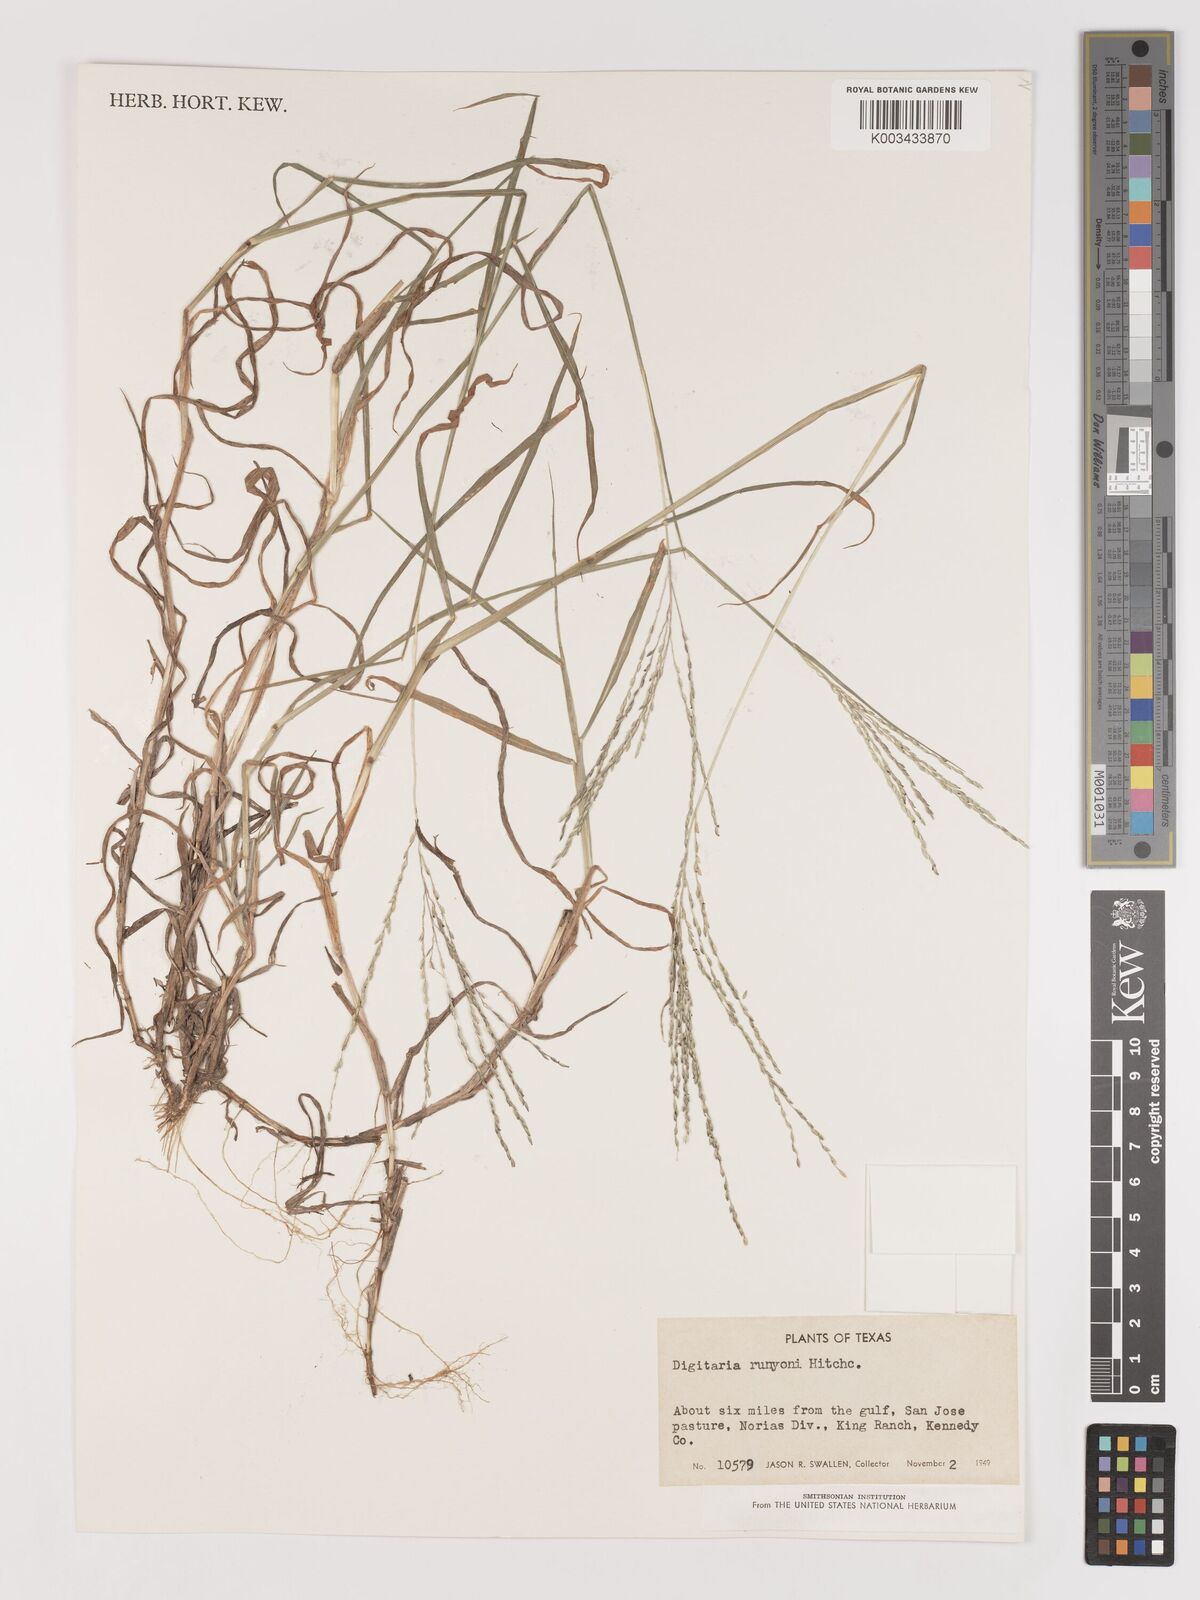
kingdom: Plantae
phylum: Tracheophyta
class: Liliopsida
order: Poales
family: Poaceae
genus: Digitaria
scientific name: Digitaria texana
